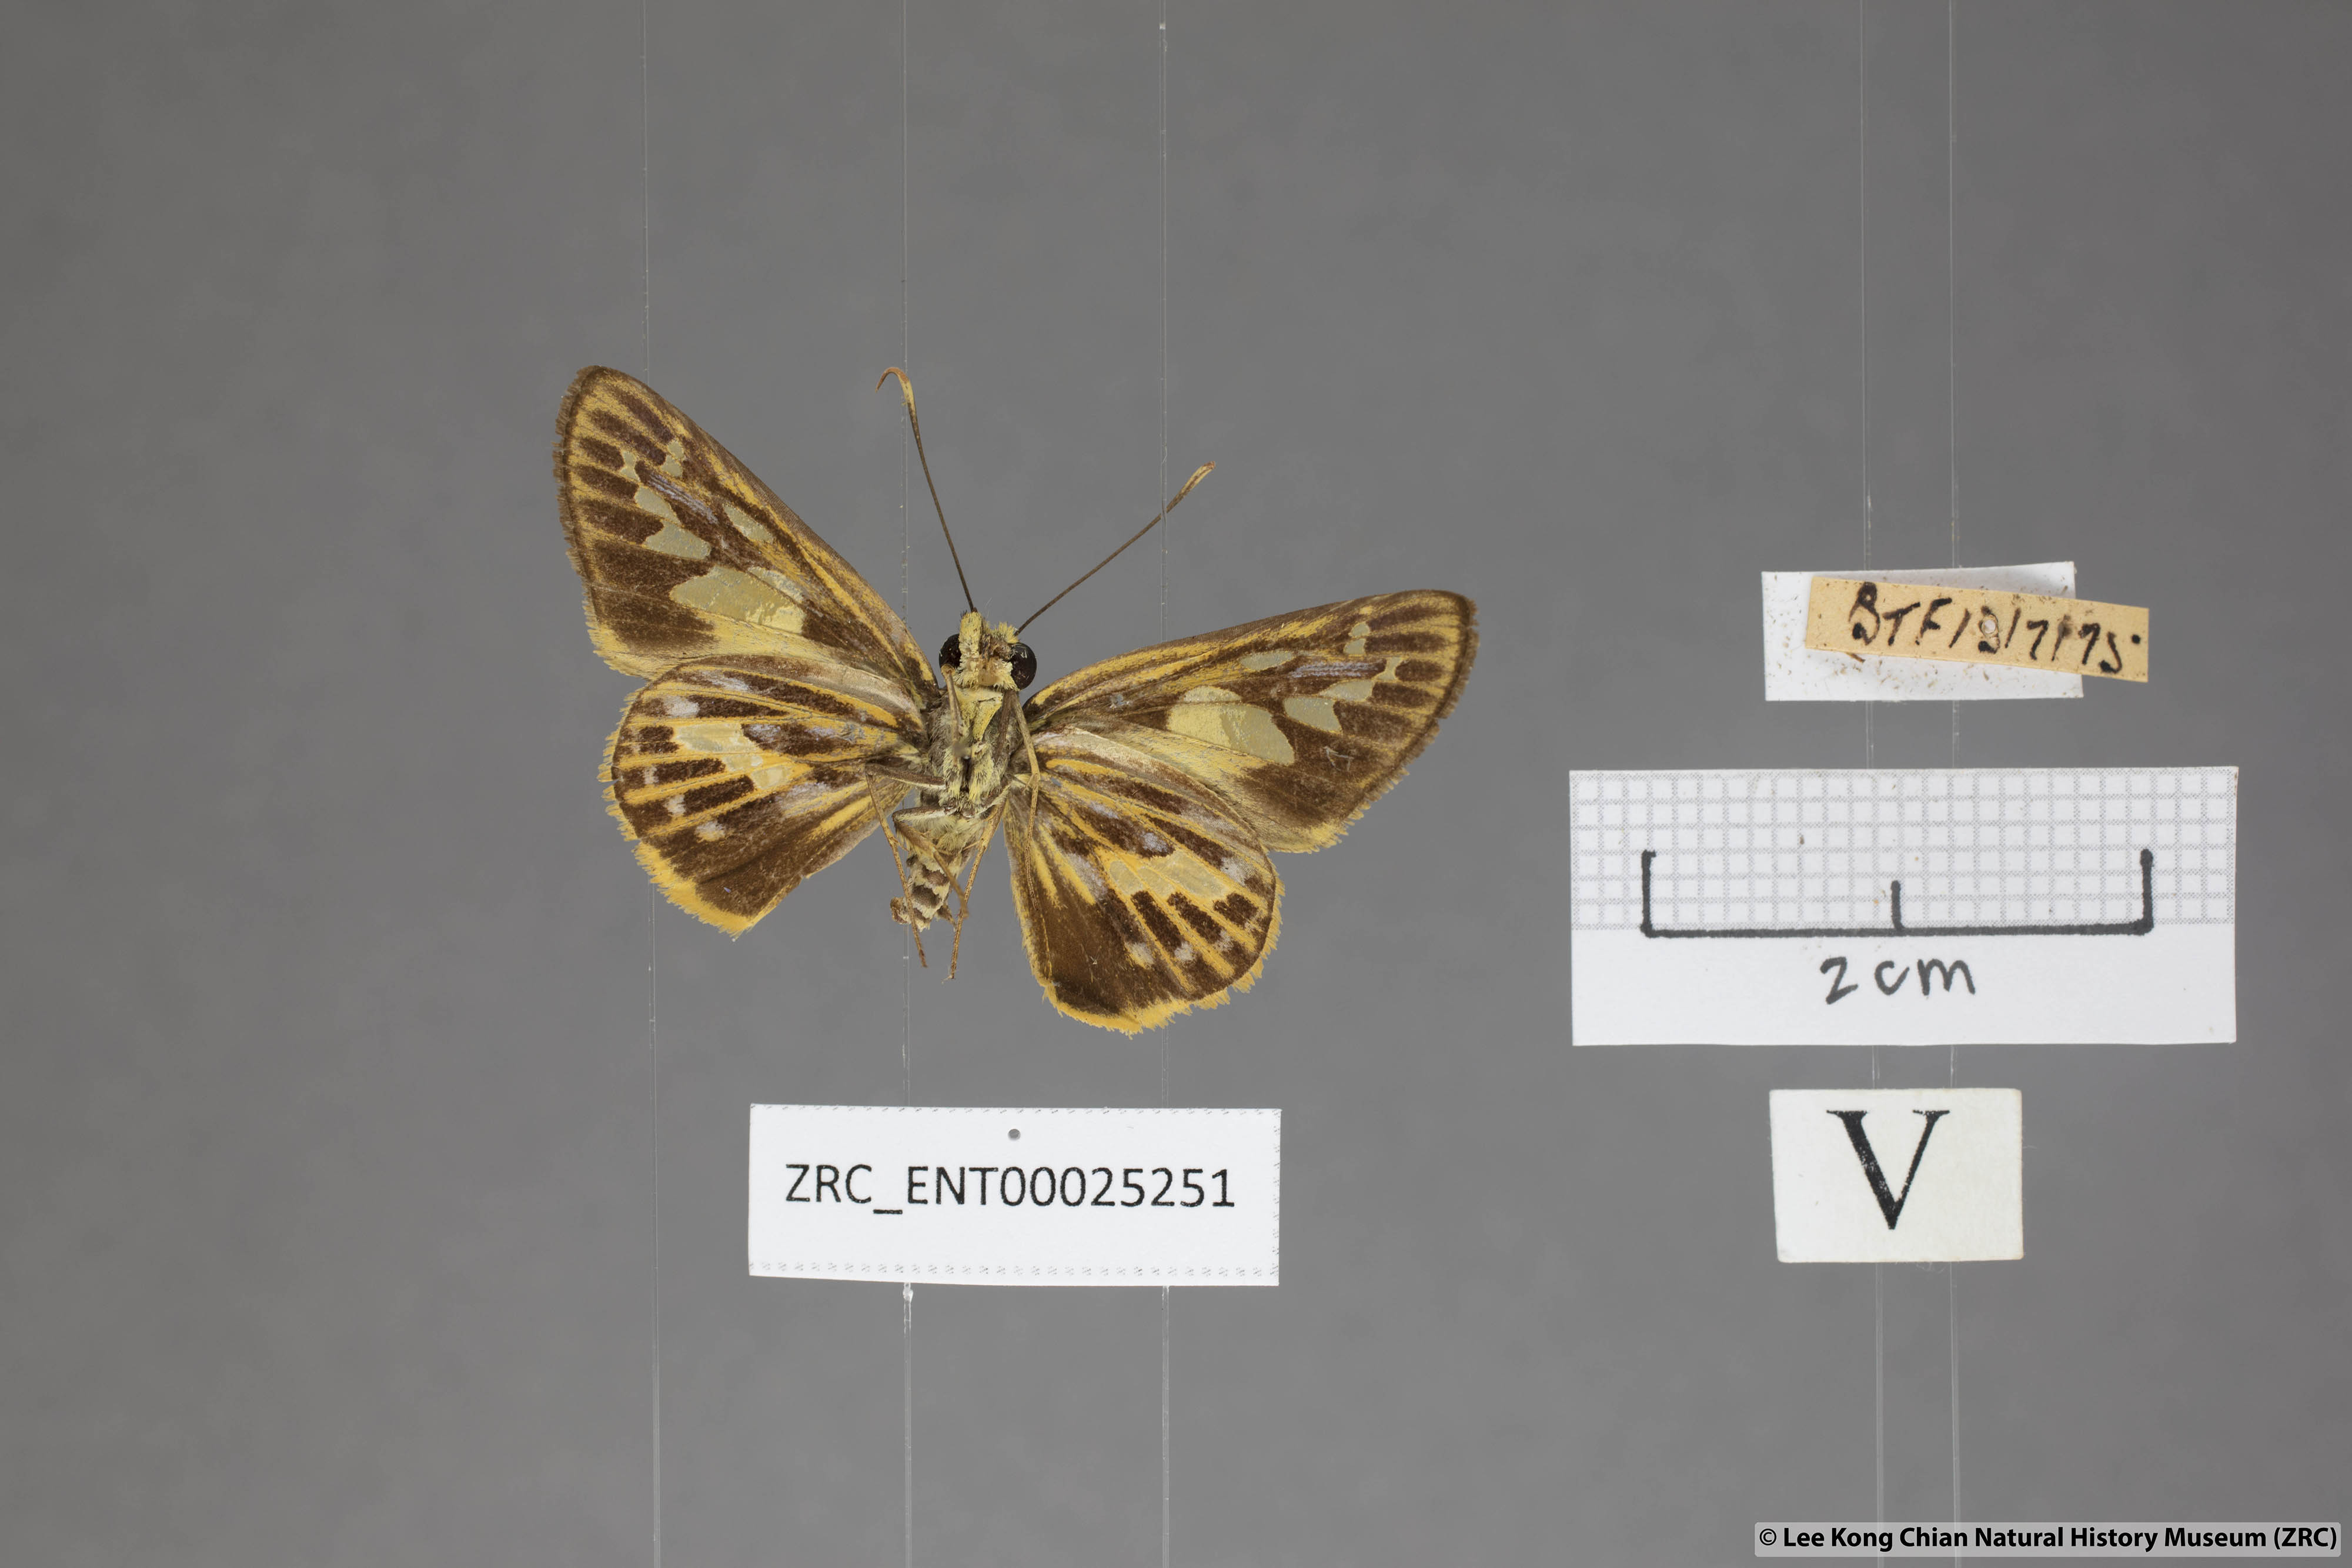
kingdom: Animalia
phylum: Arthropoda
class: Insecta
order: Lepidoptera
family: Hesperiidae
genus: Pyroneura
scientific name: Pyroneura latoia
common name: Yellow vein lancer
